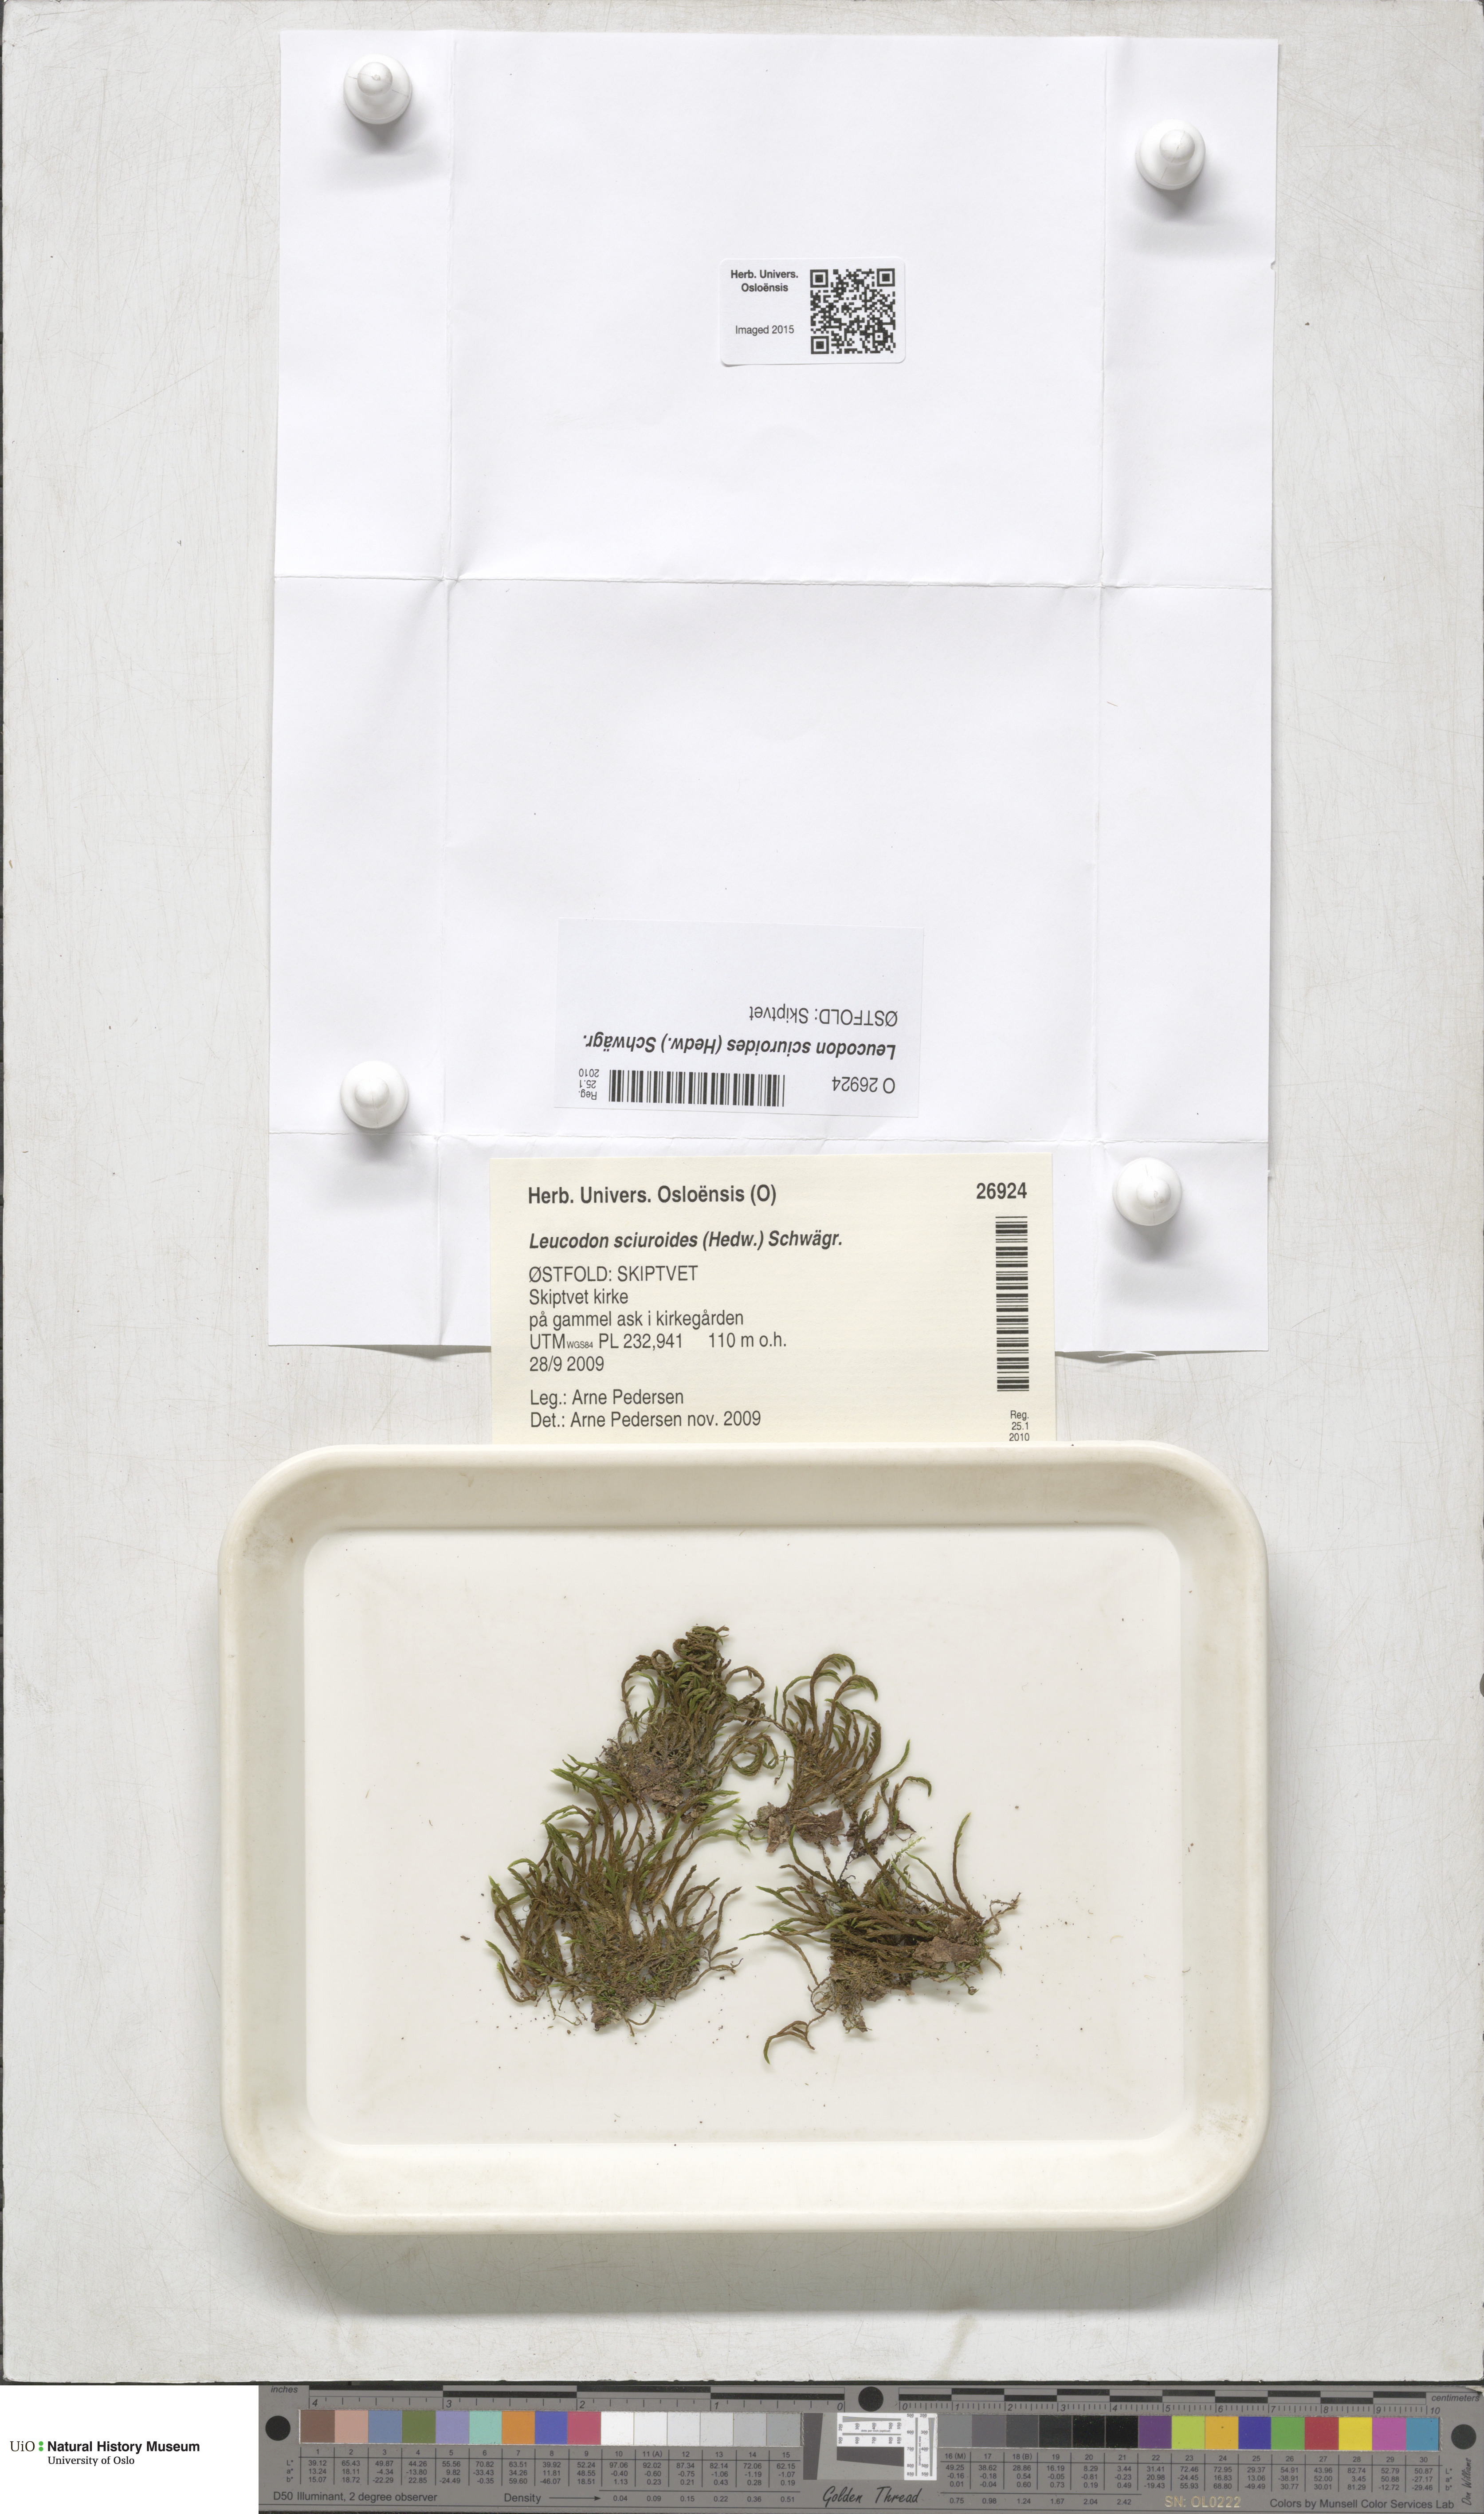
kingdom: Plantae
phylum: Bryophyta
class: Bryopsida
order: Hypnales
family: Leucodontaceae
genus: Leucodon
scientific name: Leucodon sciuroides
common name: Squirrel-tail moss
